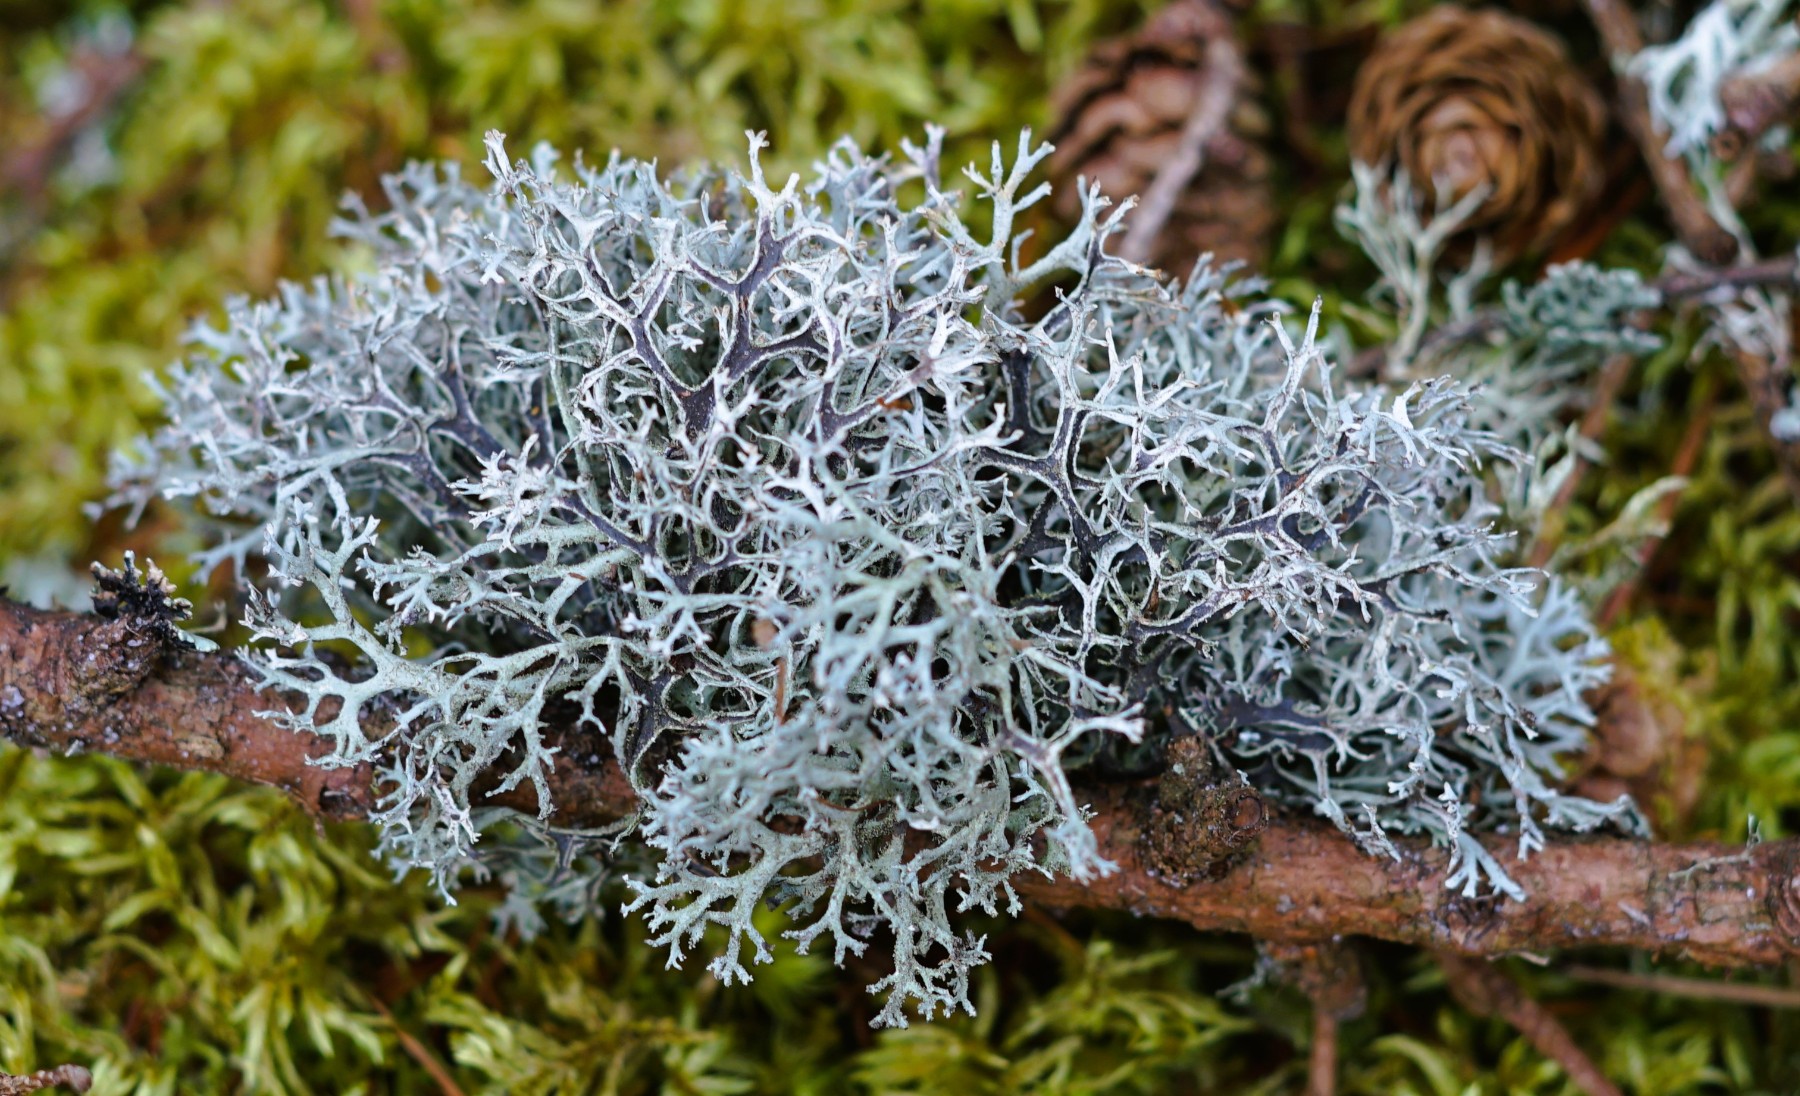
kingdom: Fungi
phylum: Ascomycota
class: Lecanoromycetes
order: Lecanorales
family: Parmeliaceae
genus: Pseudevernia
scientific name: Pseudevernia furfuracea
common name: grå fyrrelav
